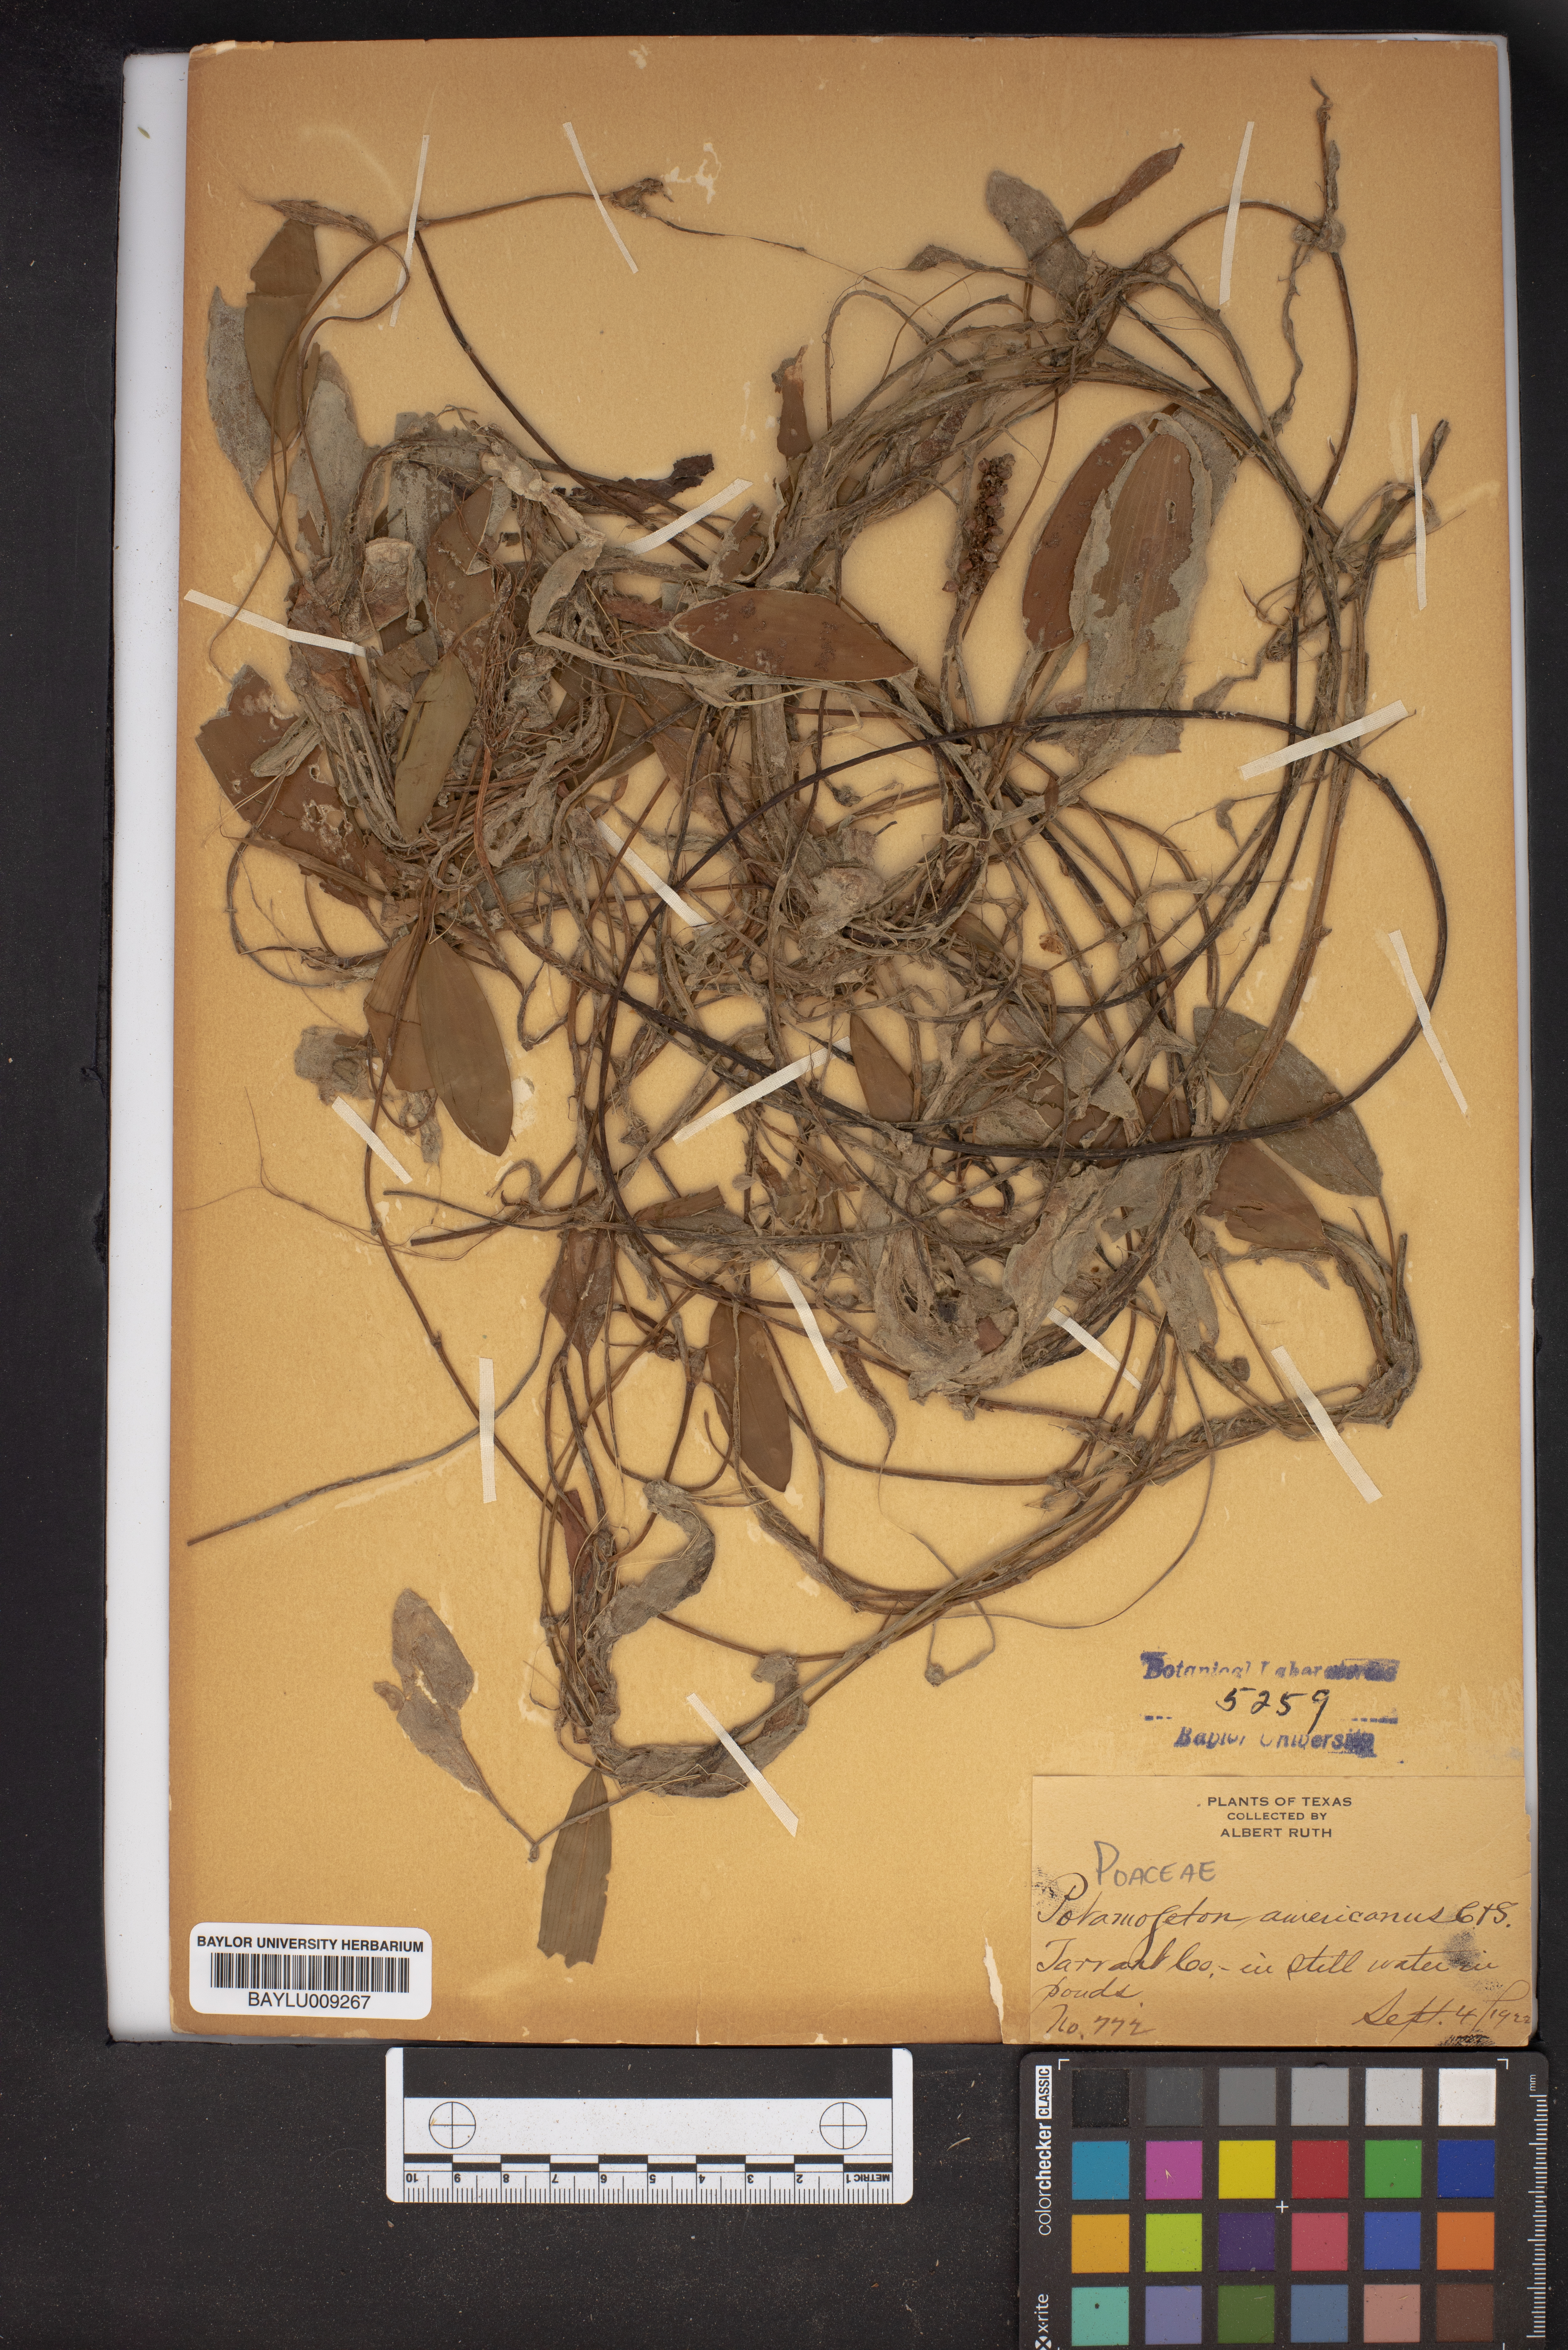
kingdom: Plantae
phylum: Tracheophyta
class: Liliopsida
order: Alismatales
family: Potamogetonaceae
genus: Potamogeton
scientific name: Potamogeton nodosus
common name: Loddon pondweed
